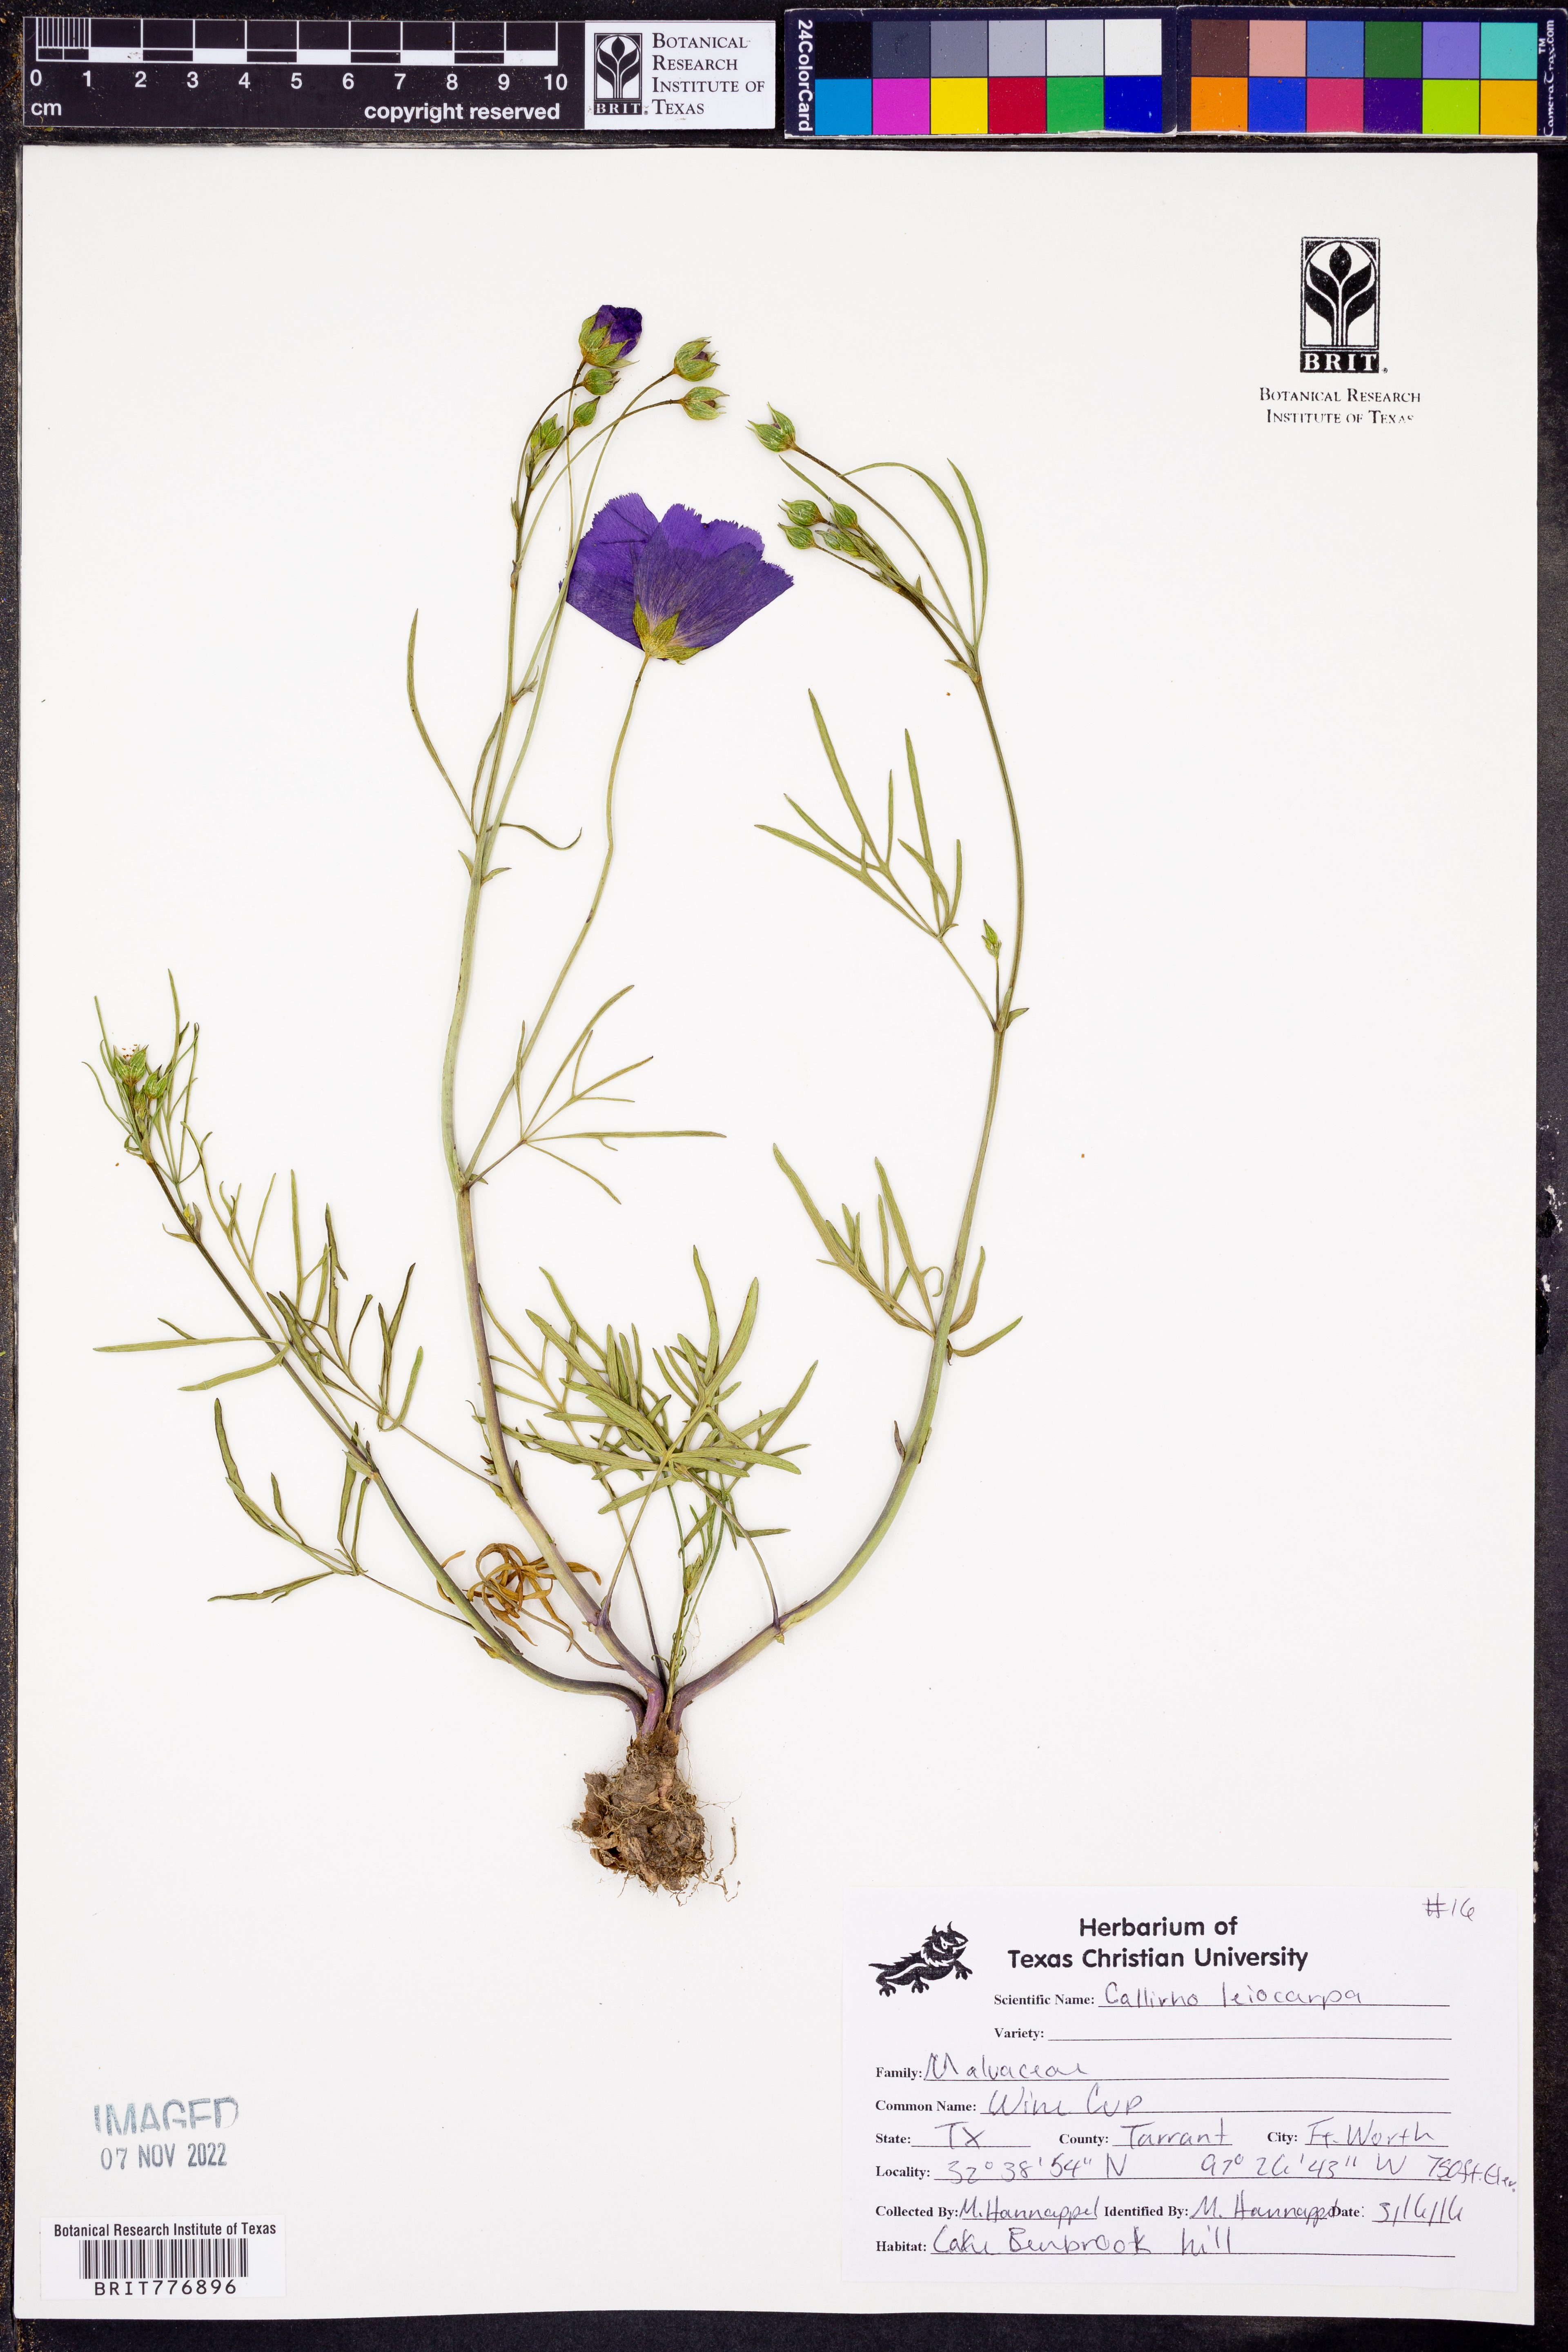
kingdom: Plantae
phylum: Tracheophyta
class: Magnoliopsida
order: Malvales
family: Malvaceae
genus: Callirhoe
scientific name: Callirhoe leiocarpa
